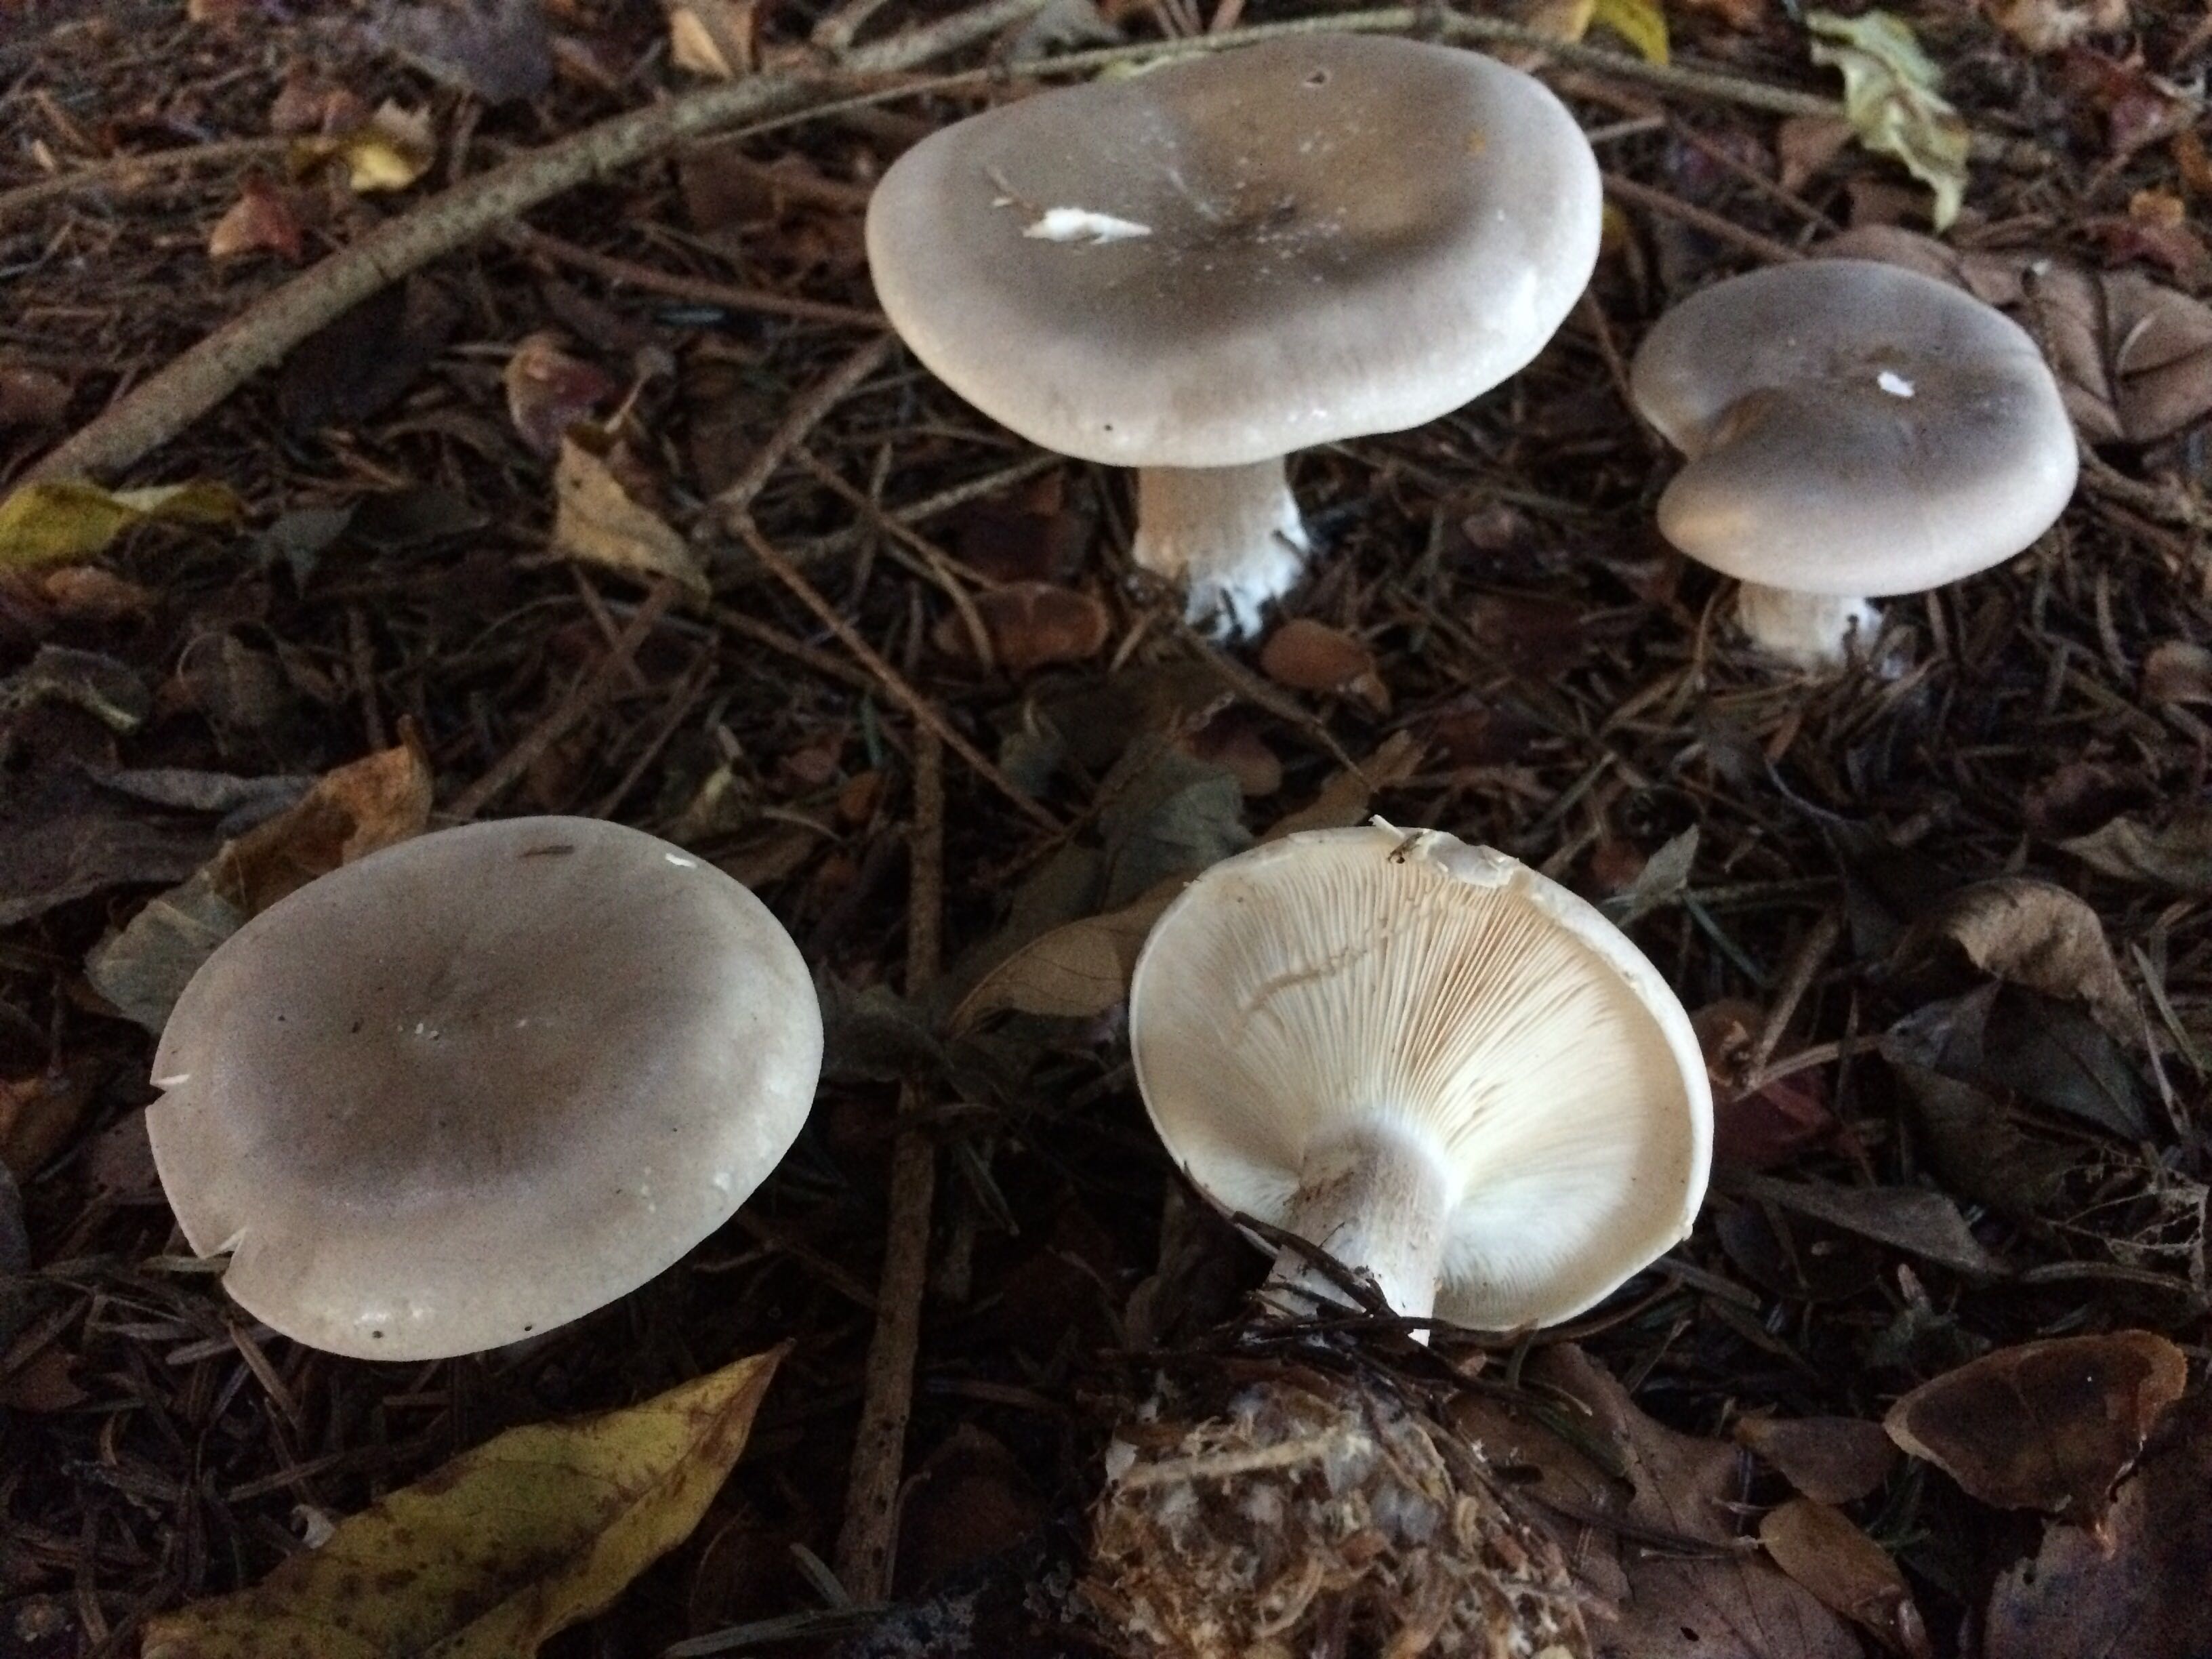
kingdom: Fungi
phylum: Basidiomycota
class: Agaricomycetes
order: Agaricales
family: Tricholomataceae
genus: Clitocybe
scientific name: Clitocybe nebularis
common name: tåge-tragthat
